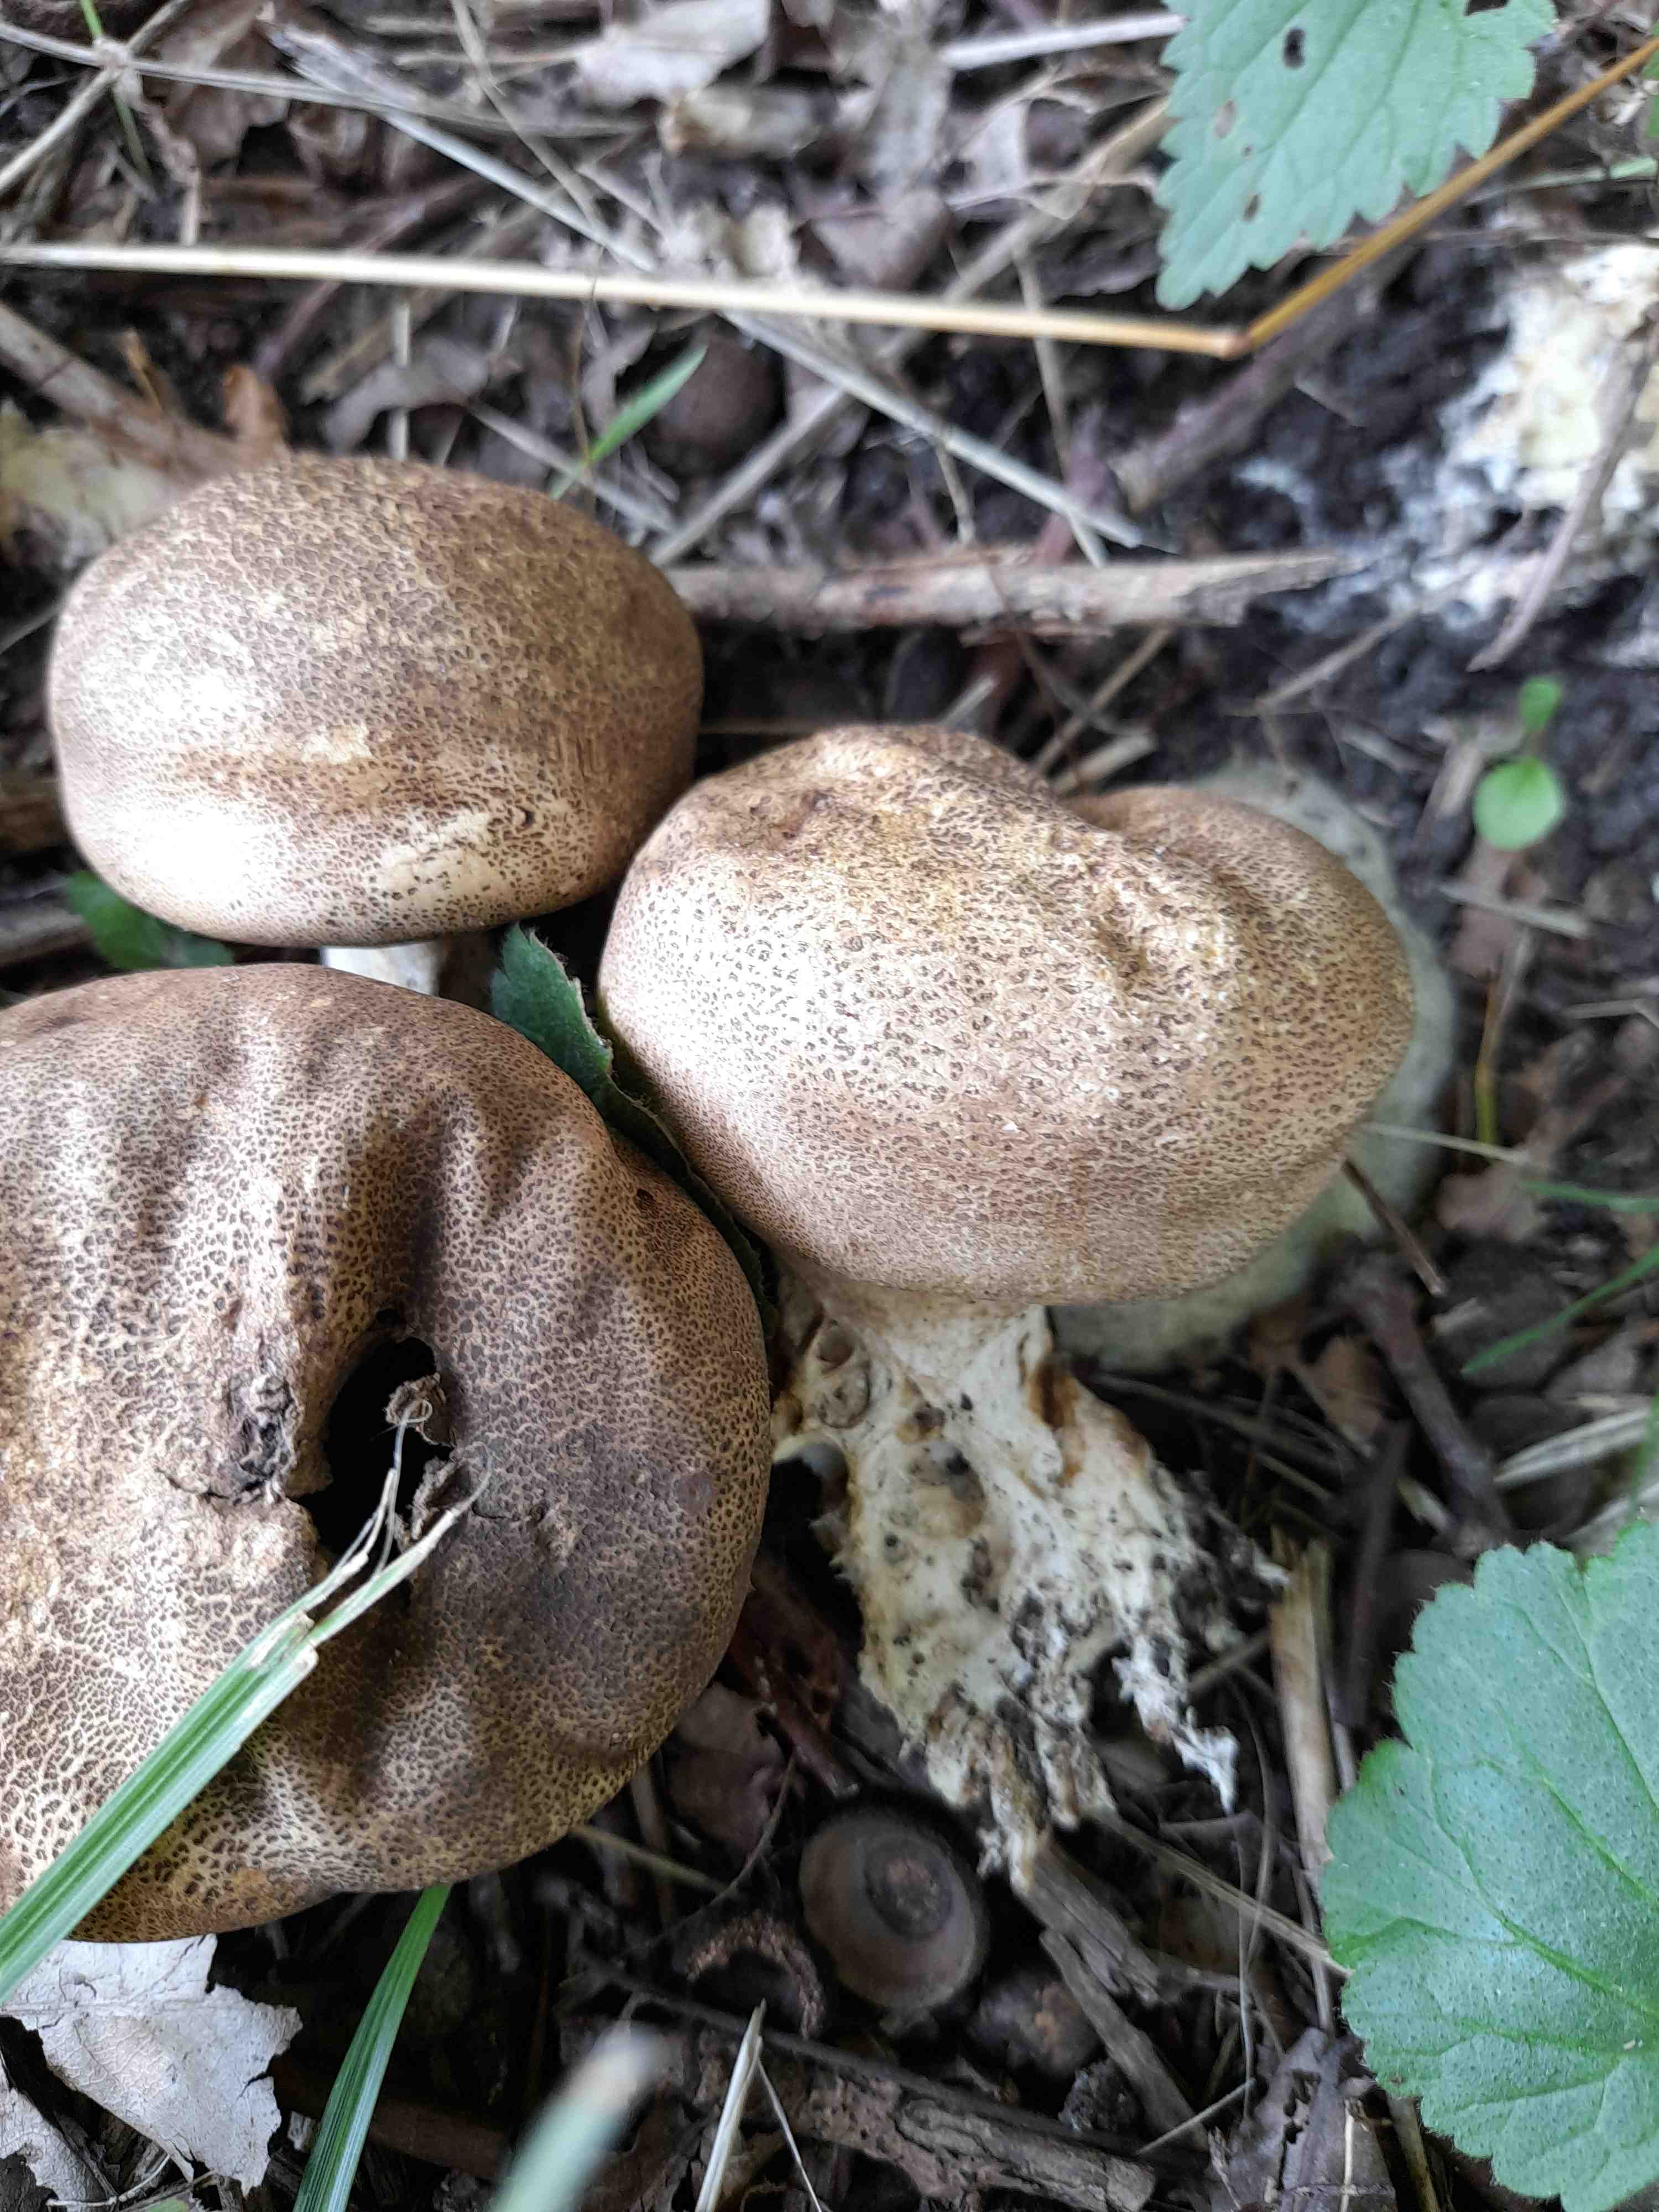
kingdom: Fungi
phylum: Basidiomycota
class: Agaricomycetes
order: Boletales
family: Sclerodermataceae
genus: Scleroderma
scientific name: Scleroderma areolatum
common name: plettet bruskbold
